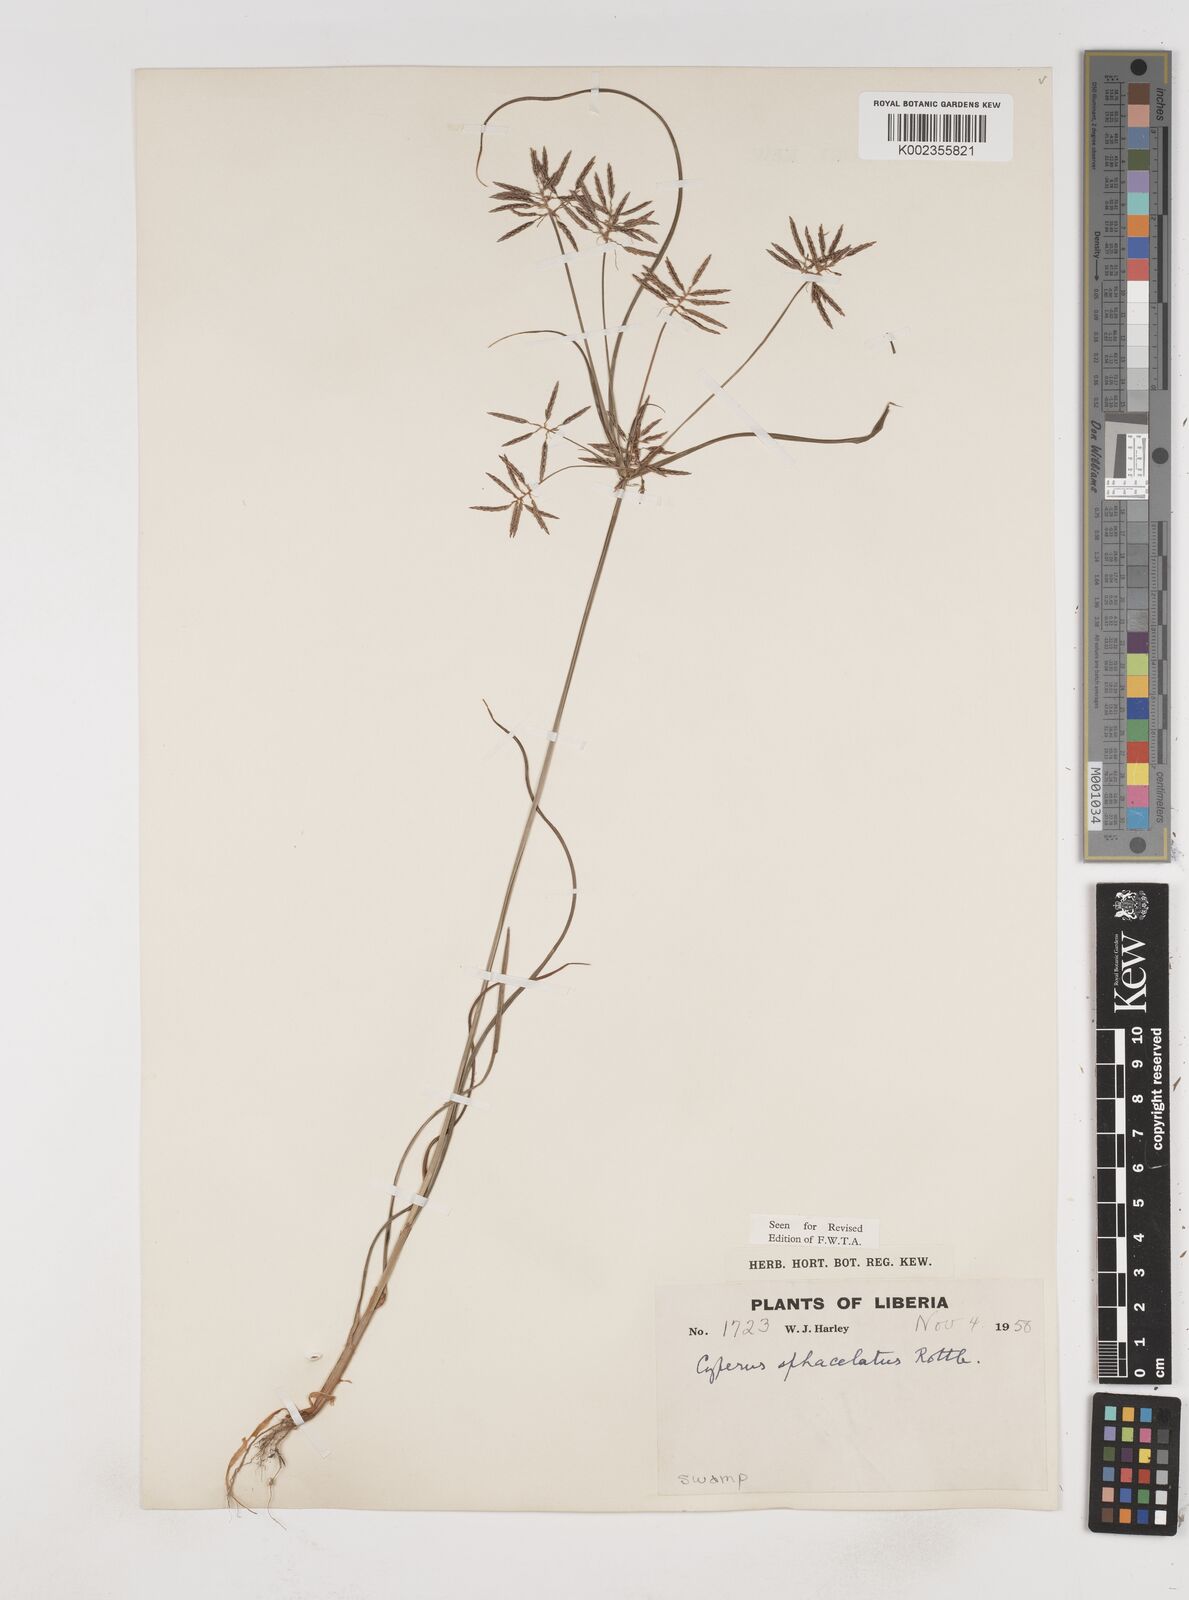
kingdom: Plantae
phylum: Tracheophyta
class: Liliopsida
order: Poales
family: Cyperaceae
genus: Cyperus
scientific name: Cyperus sphacelatus
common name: Roadside flatsedge
